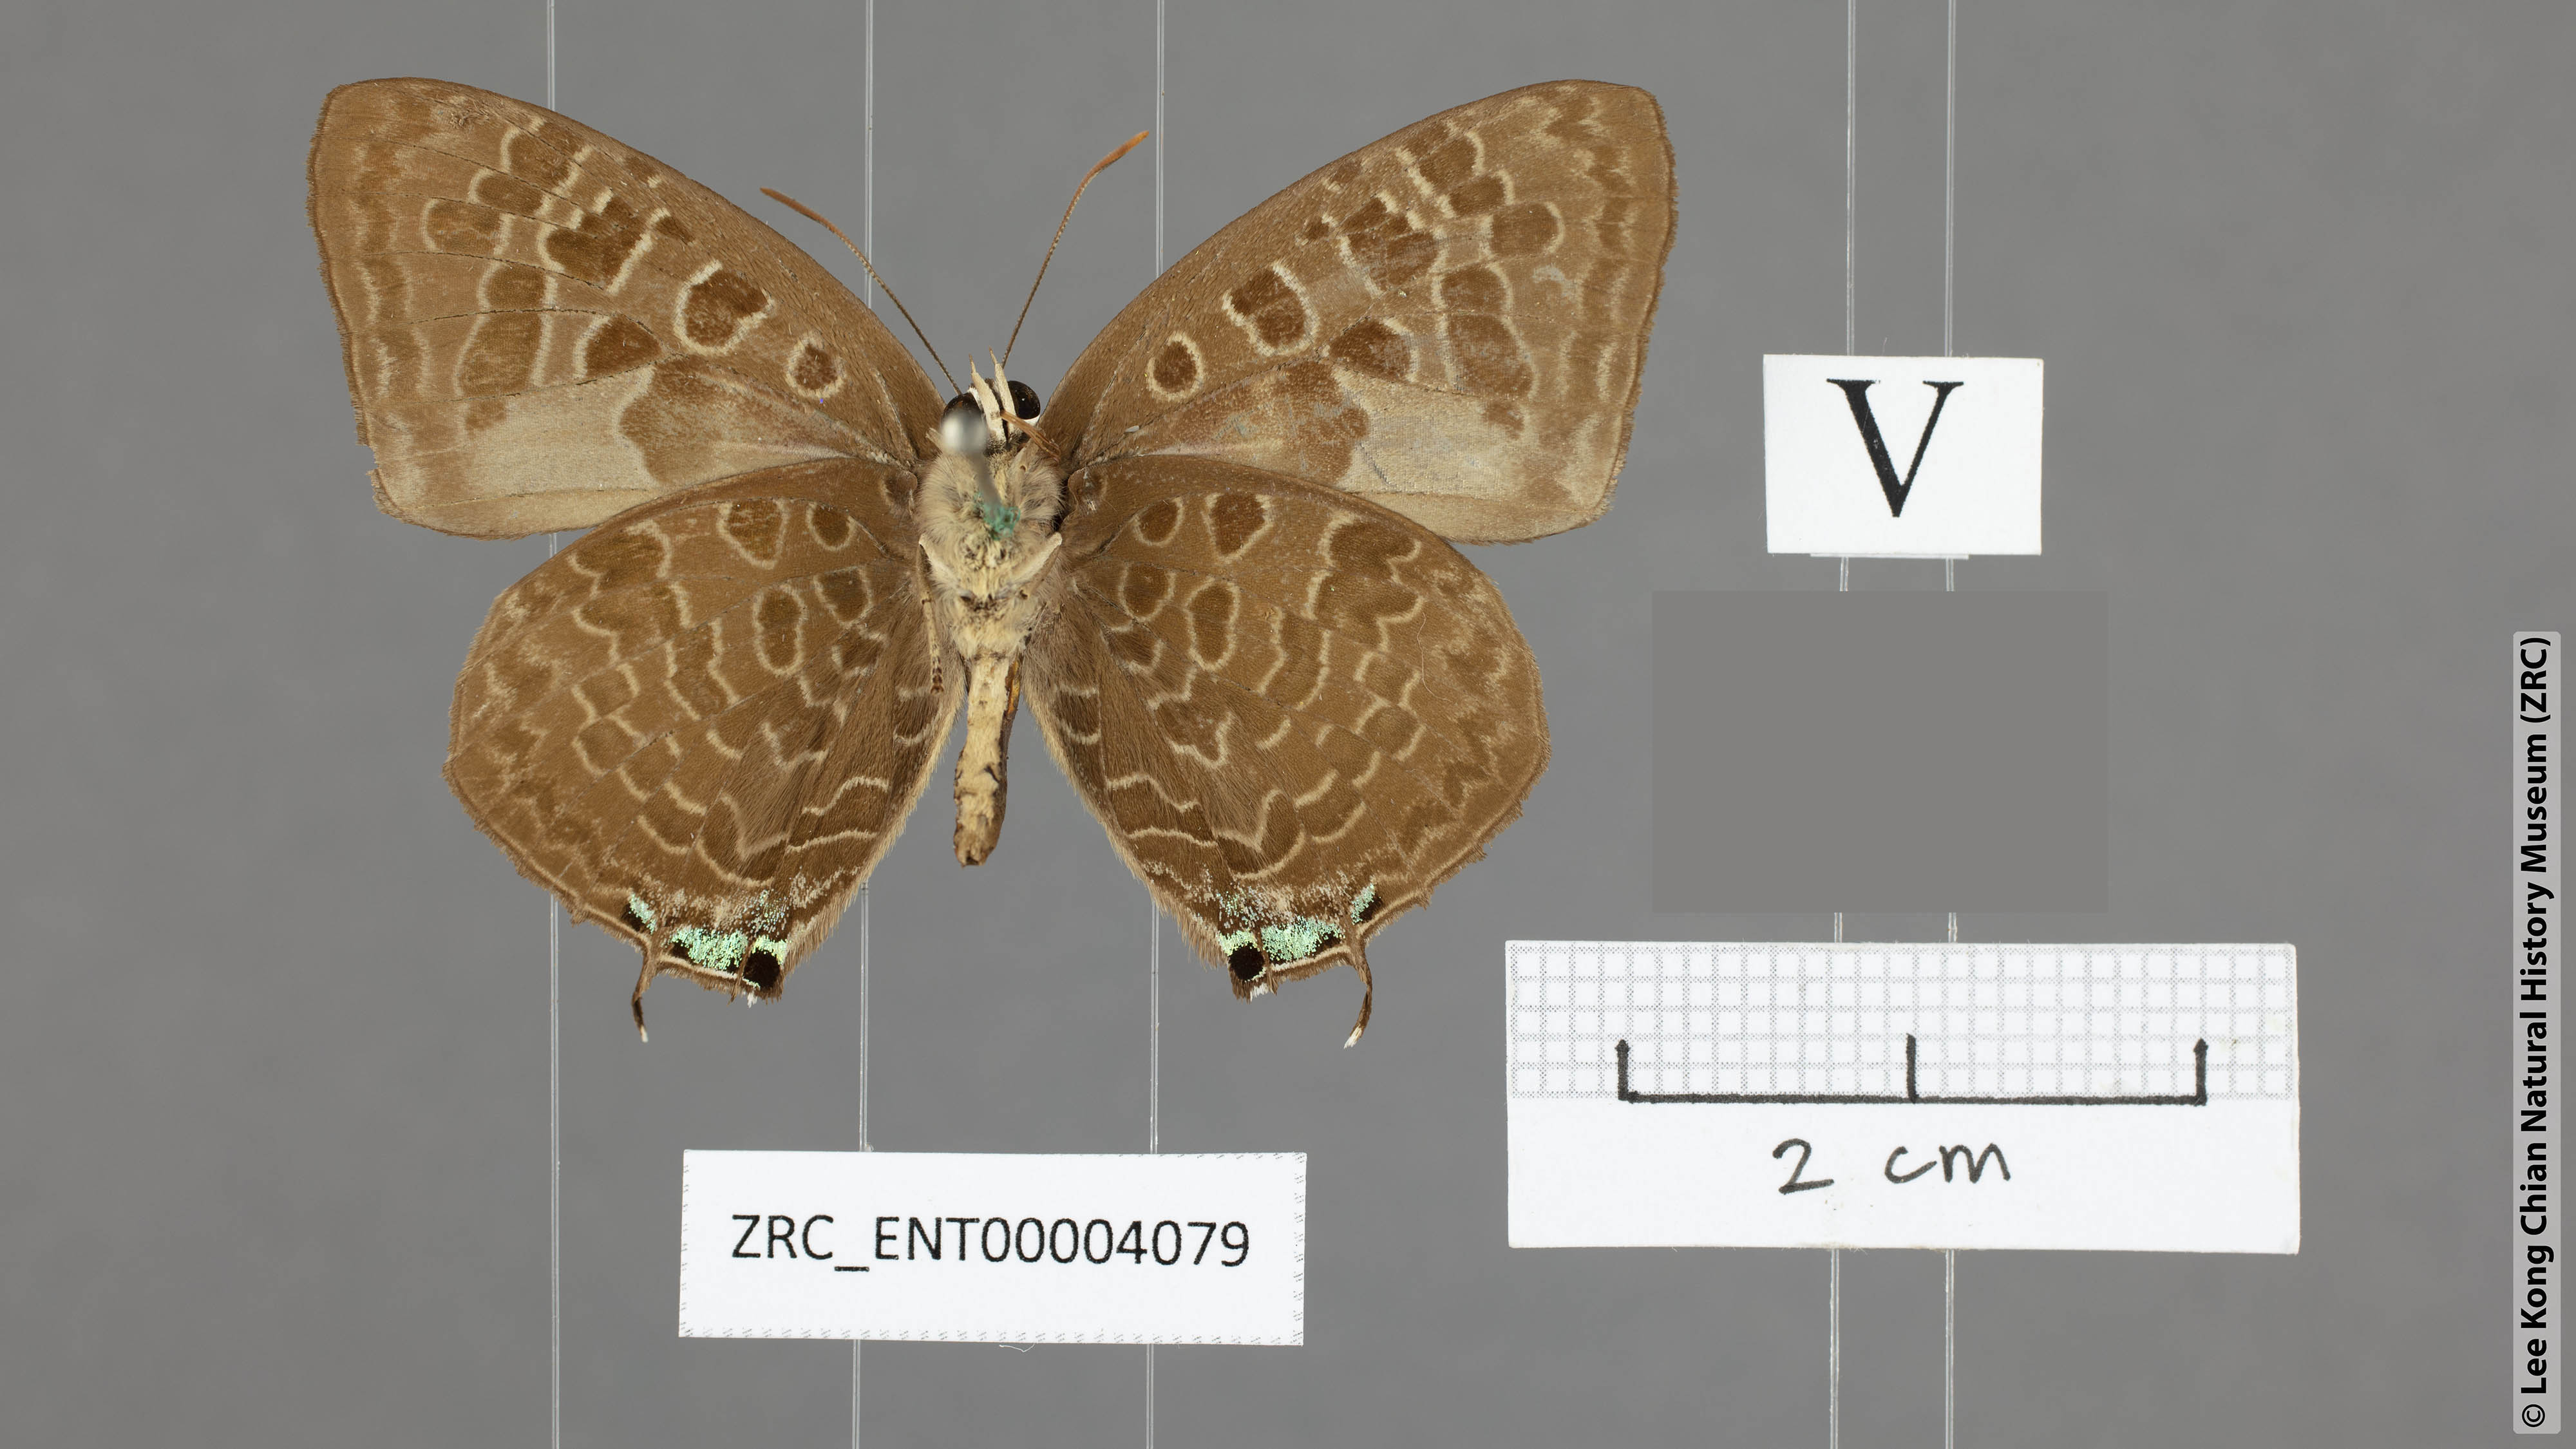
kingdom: Animalia
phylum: Arthropoda
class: Insecta
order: Lepidoptera
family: Lycaenidae
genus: Arhopala
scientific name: Arhopala hellenore
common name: Doherty's green oakblue
